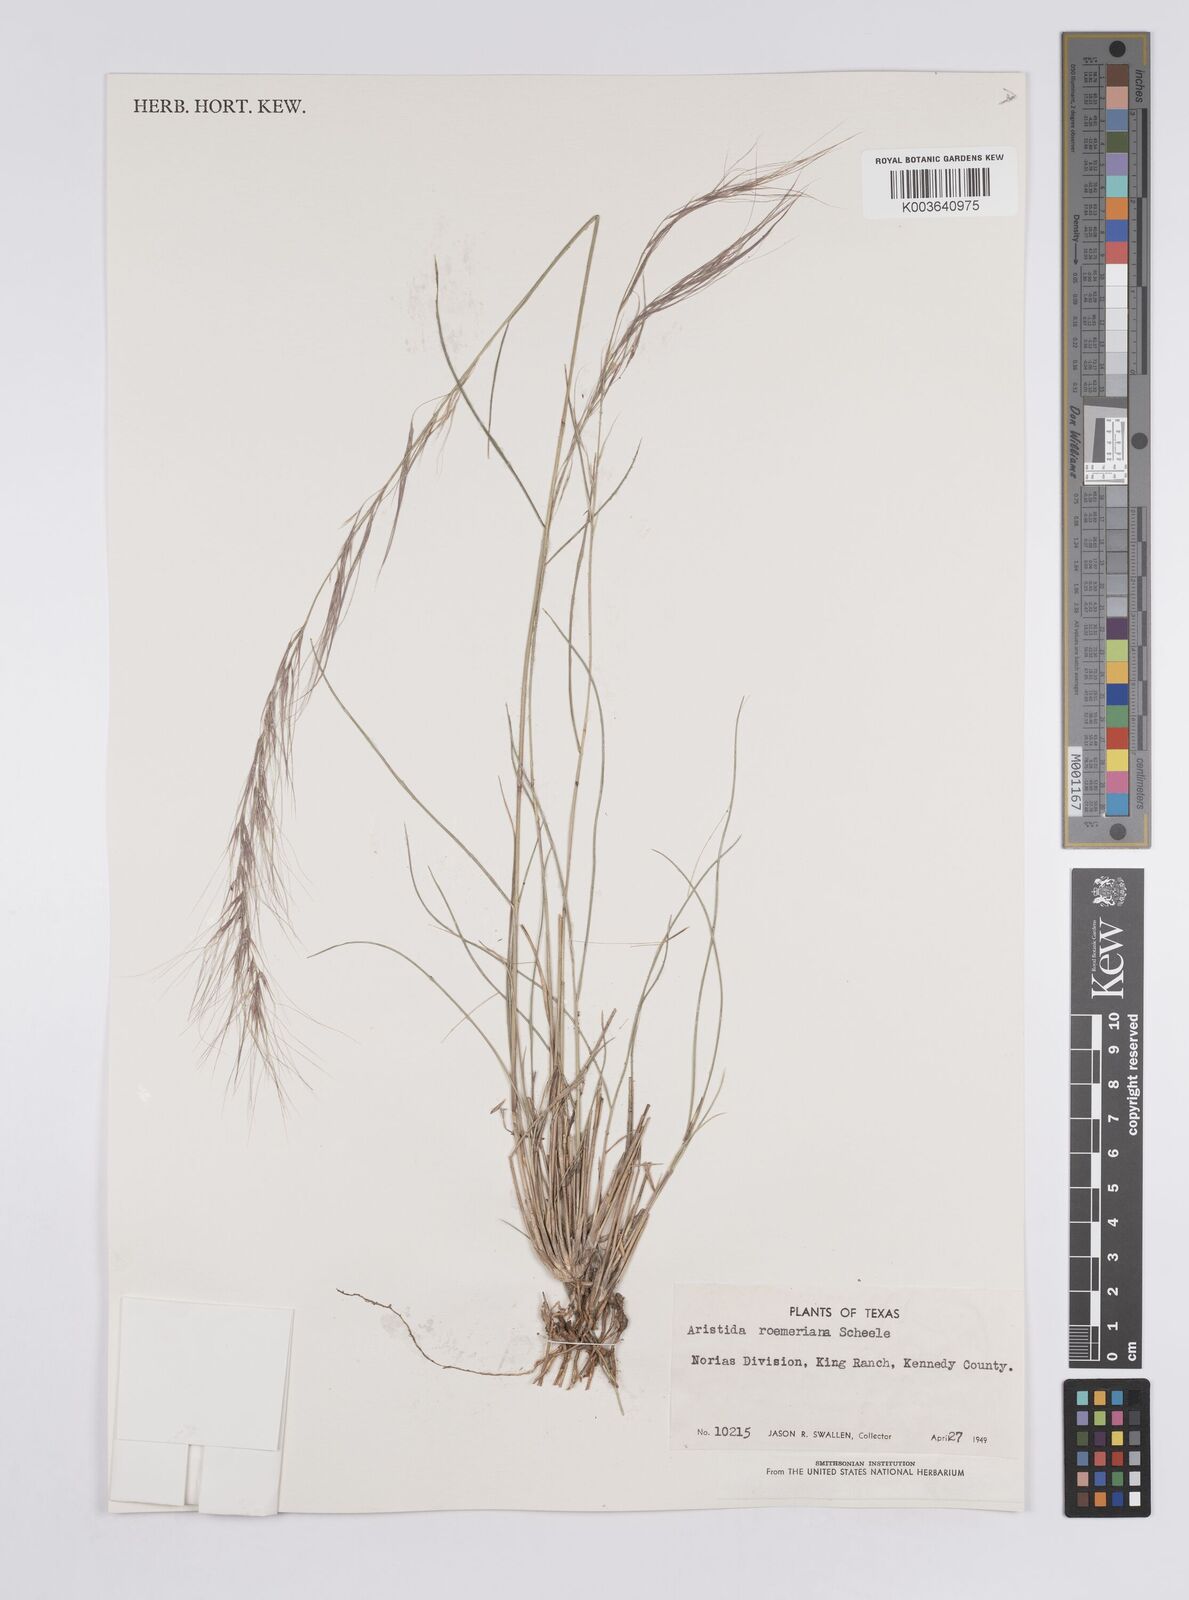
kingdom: Plantae
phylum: Tracheophyta
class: Liliopsida
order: Poales
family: Poaceae
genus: Aristida
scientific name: Aristida purpurea
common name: Purple threeawn
